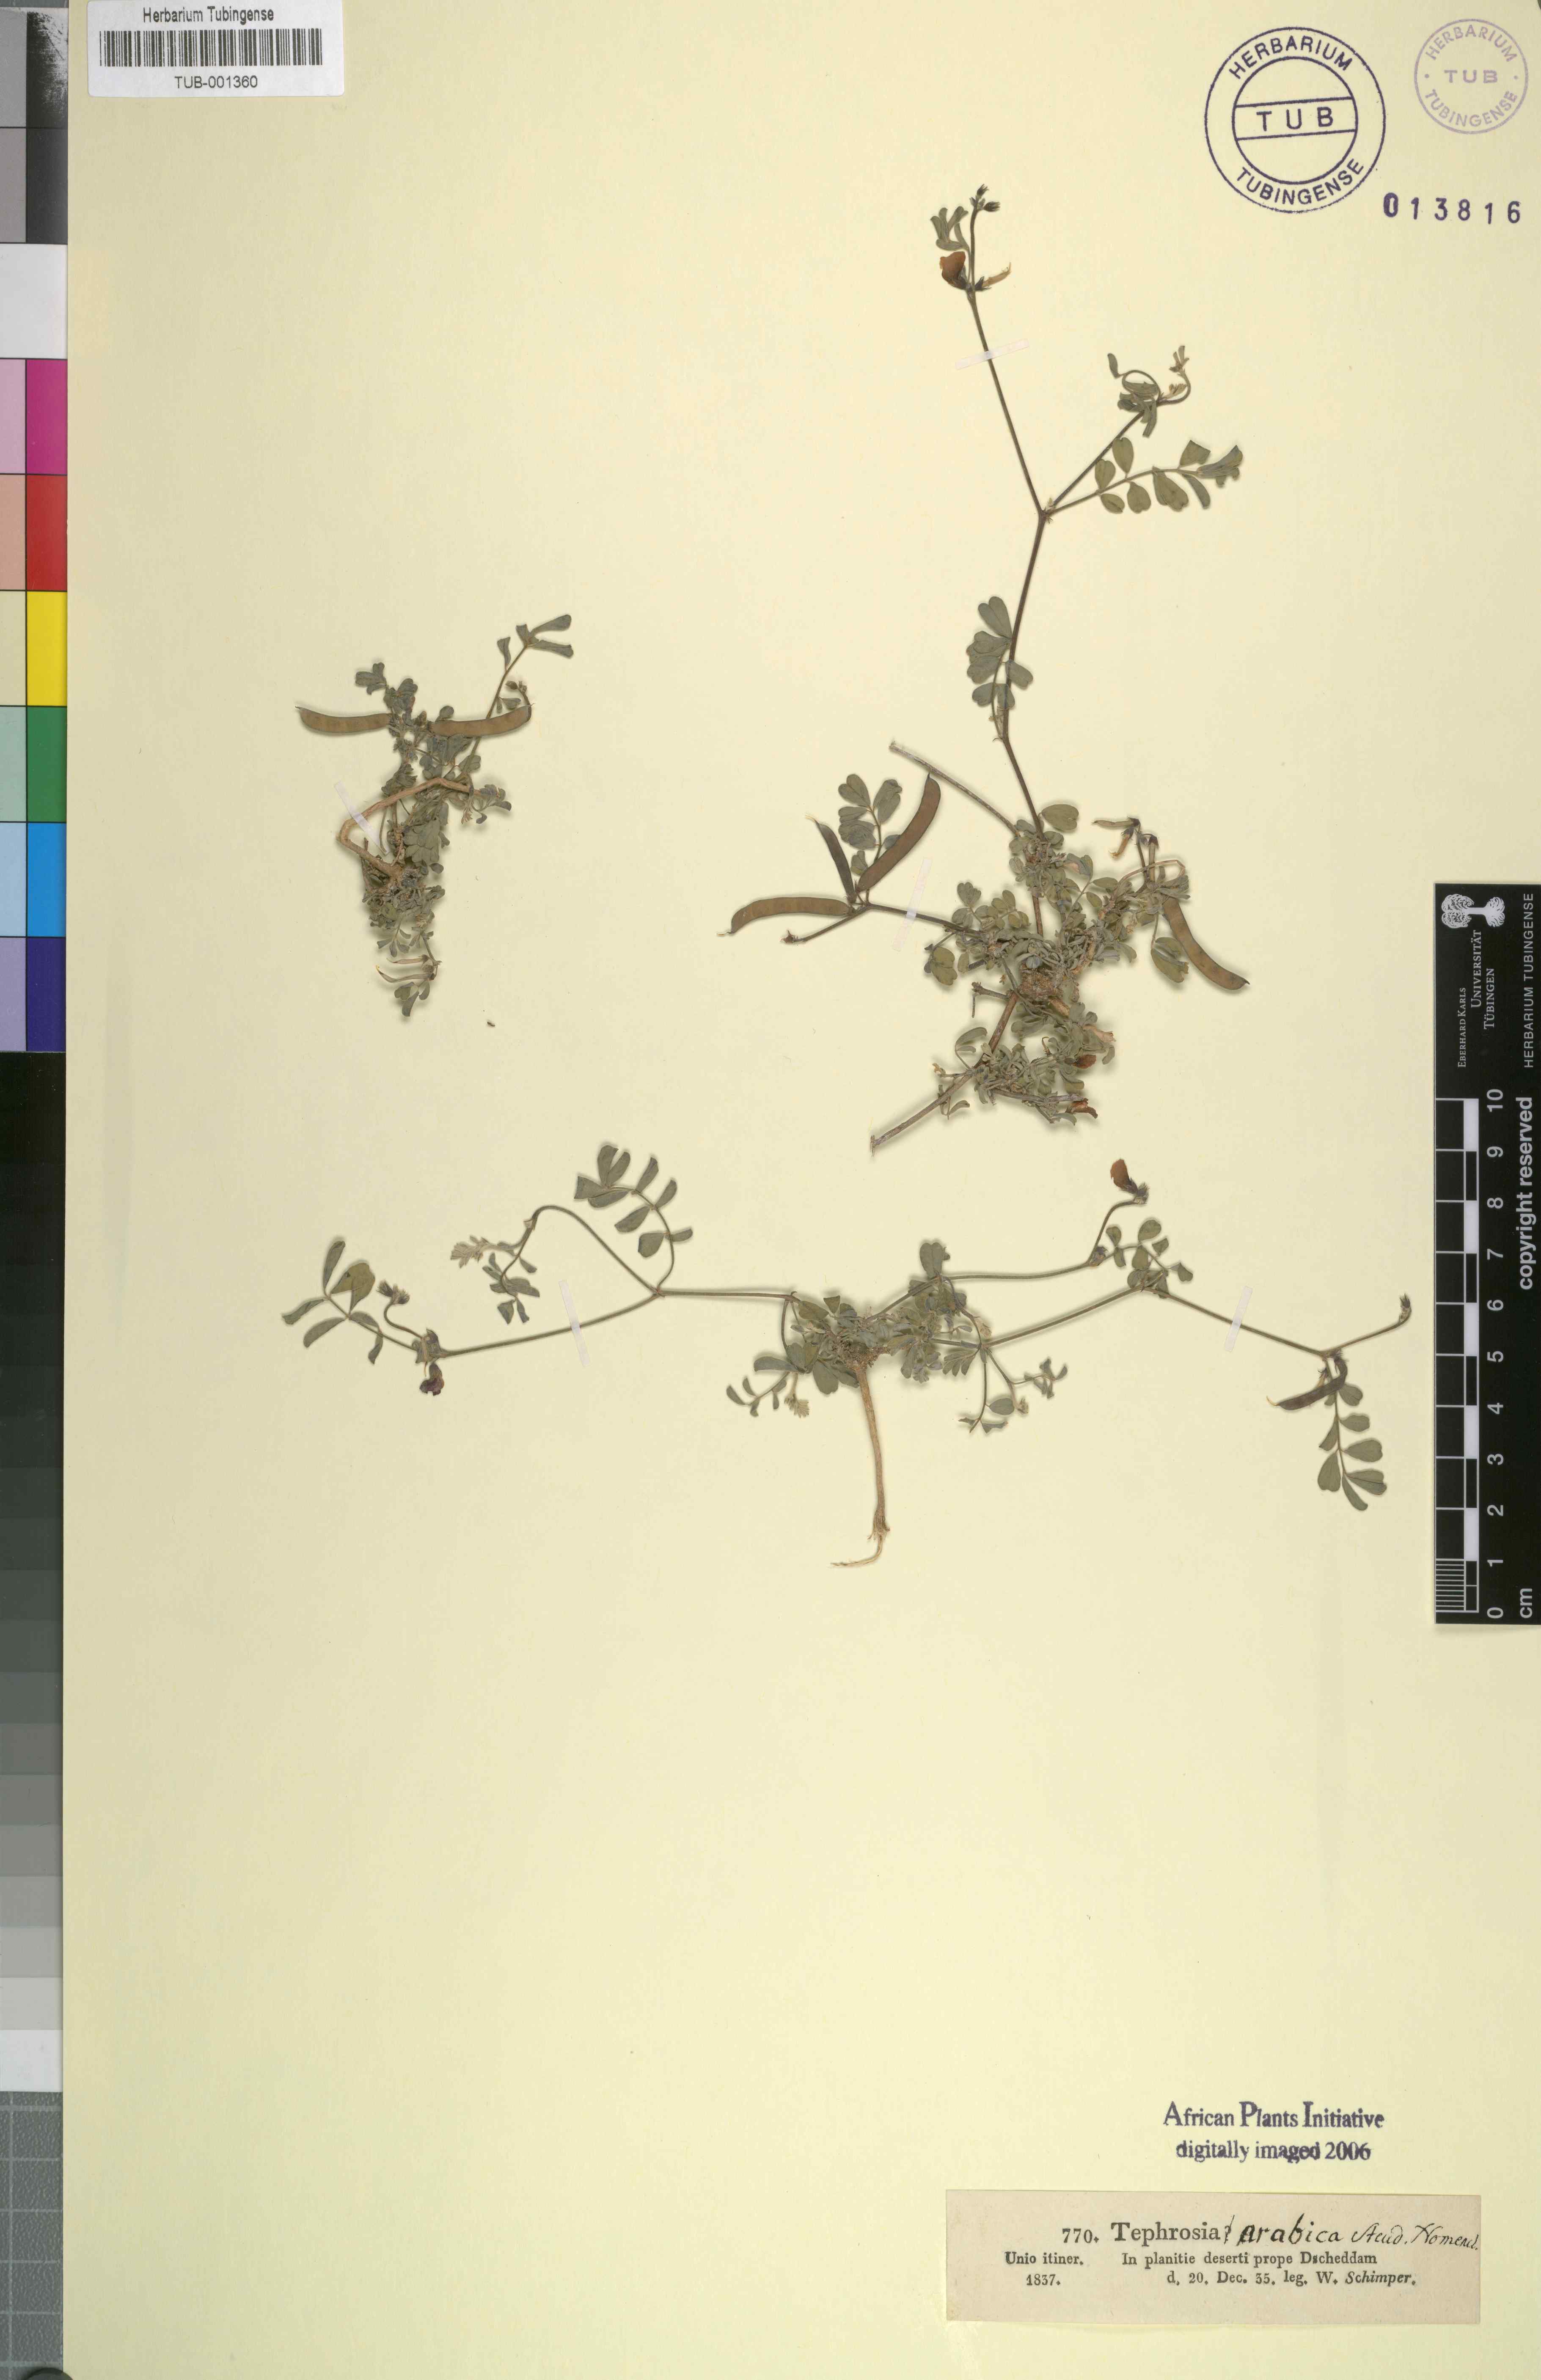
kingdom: Plantae
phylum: Tracheophyta
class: Magnoliopsida
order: Fabales
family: Fabaceae
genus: Tephrosia
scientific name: Tephrosia nubica
